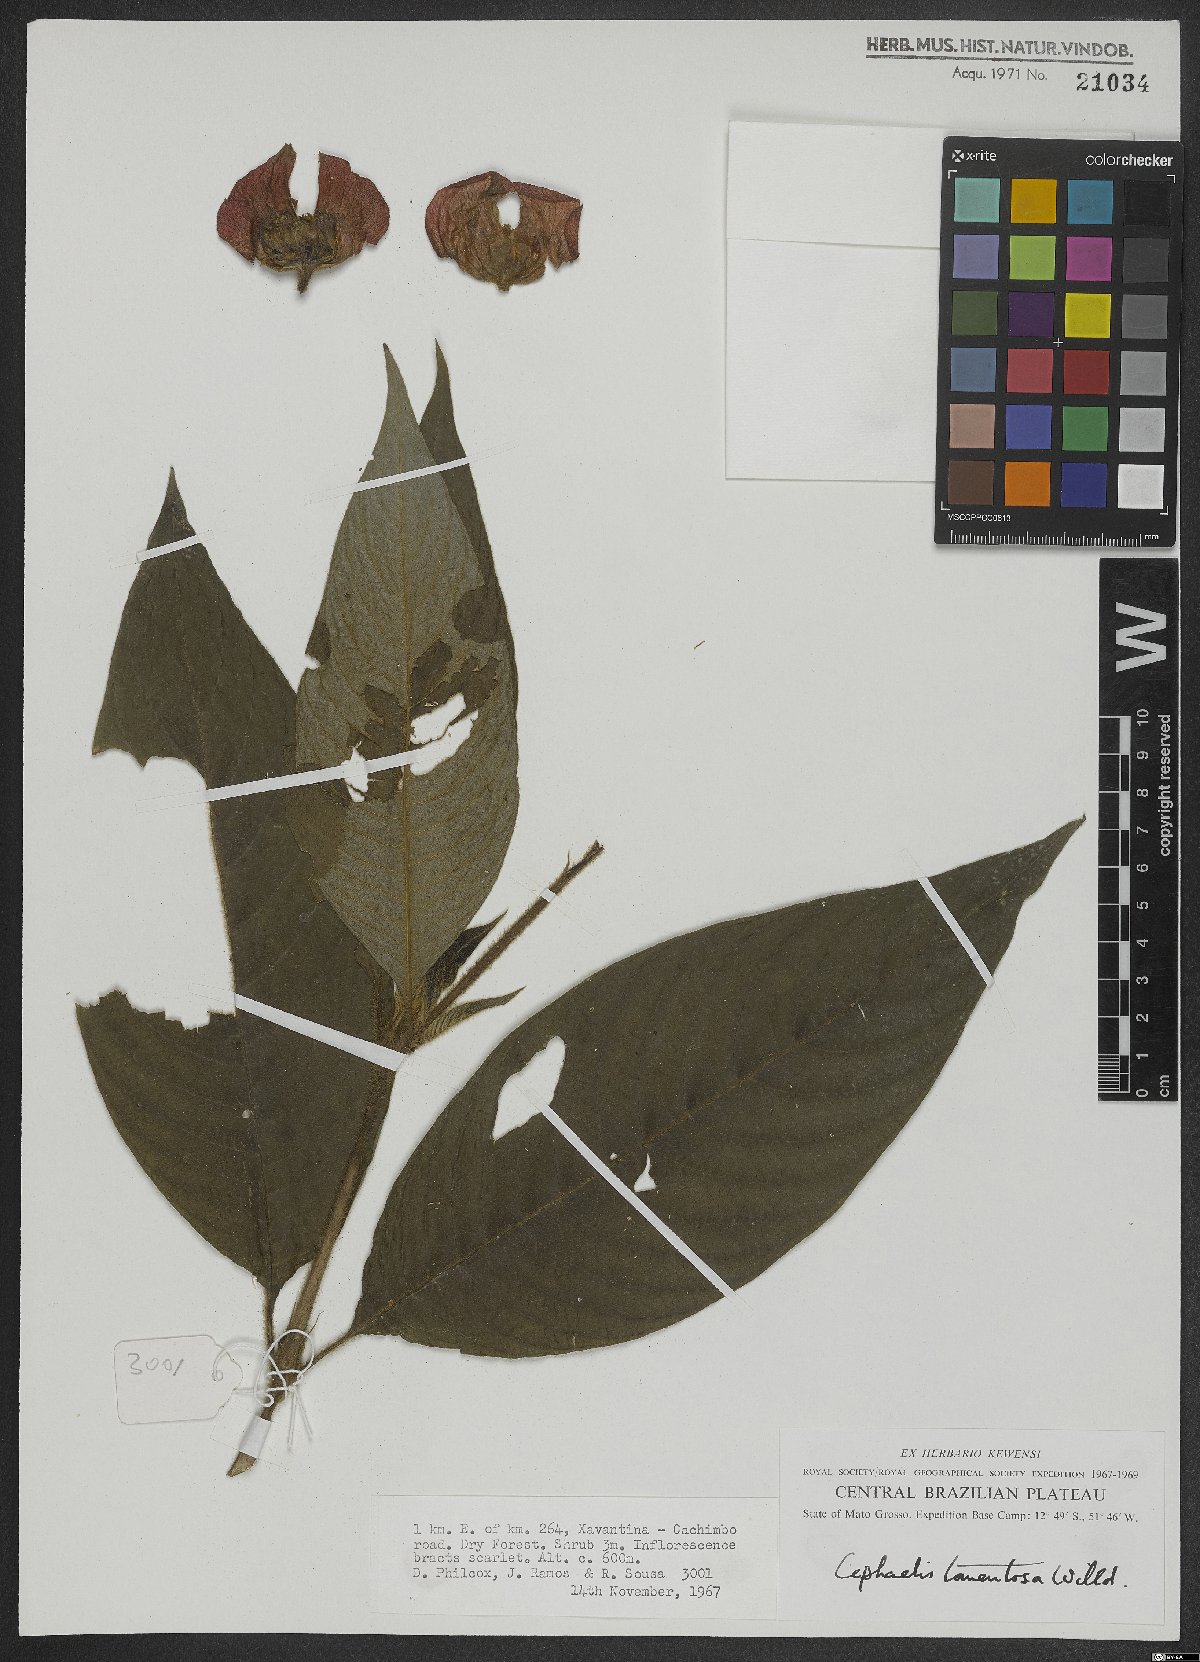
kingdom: Plantae
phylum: Tracheophyta
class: Magnoliopsida
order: Gentianales
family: Rubiaceae
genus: Palicourea
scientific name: Palicourea tomentosa
